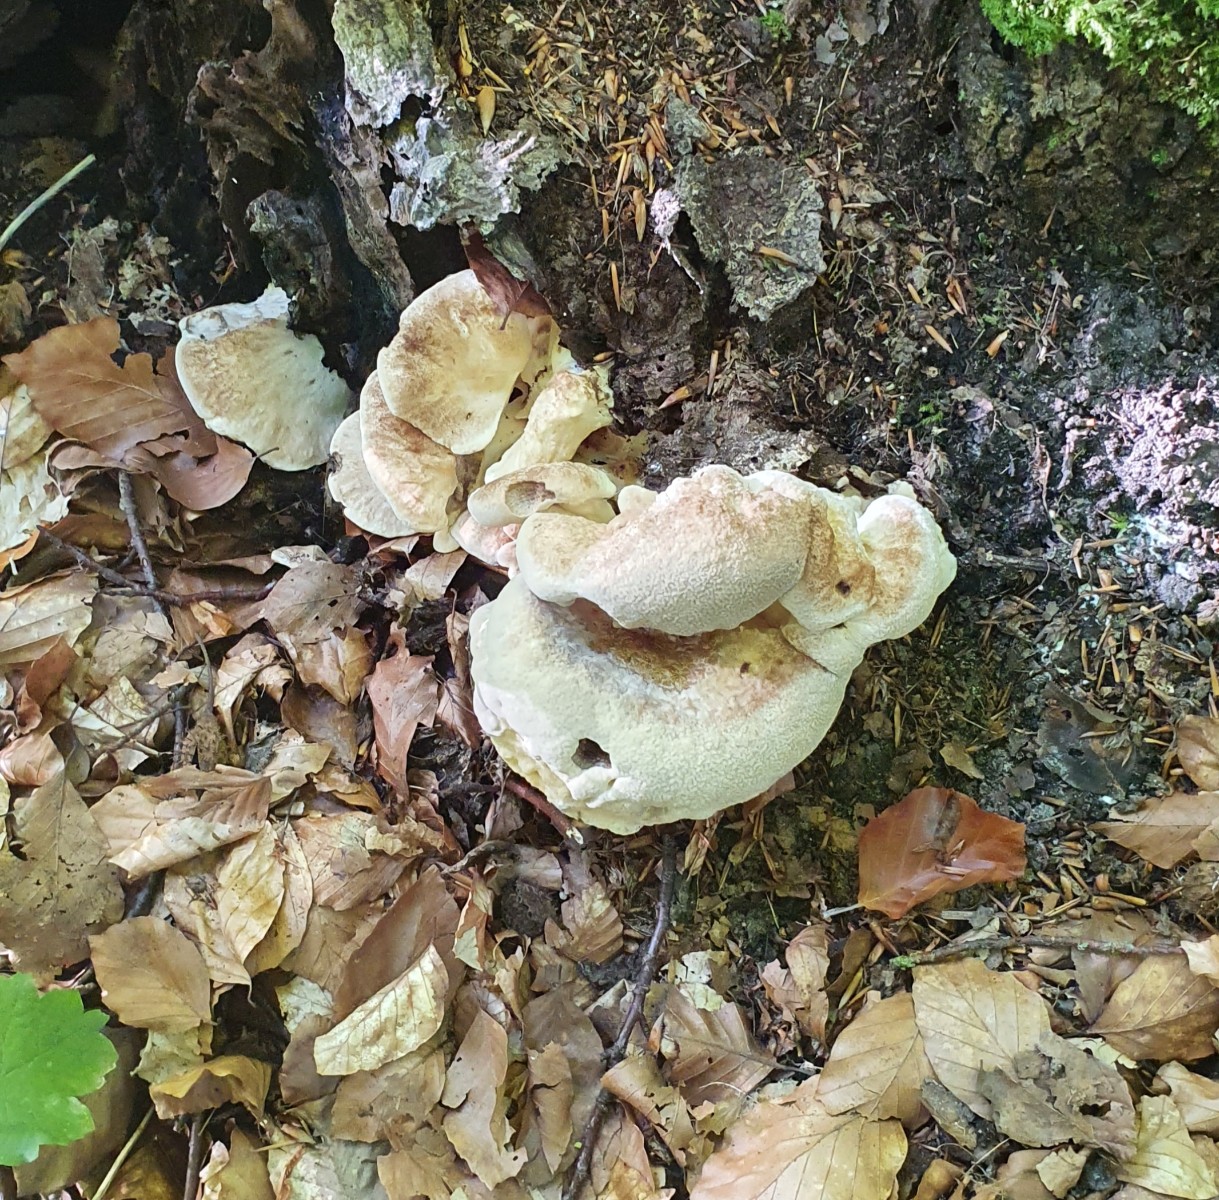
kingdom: Fungi
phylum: Basidiomycota
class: Agaricomycetes
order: Polyporales
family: Meripilaceae
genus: Meripilus
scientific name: Meripilus giganteus
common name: kæmpeporesvamp
